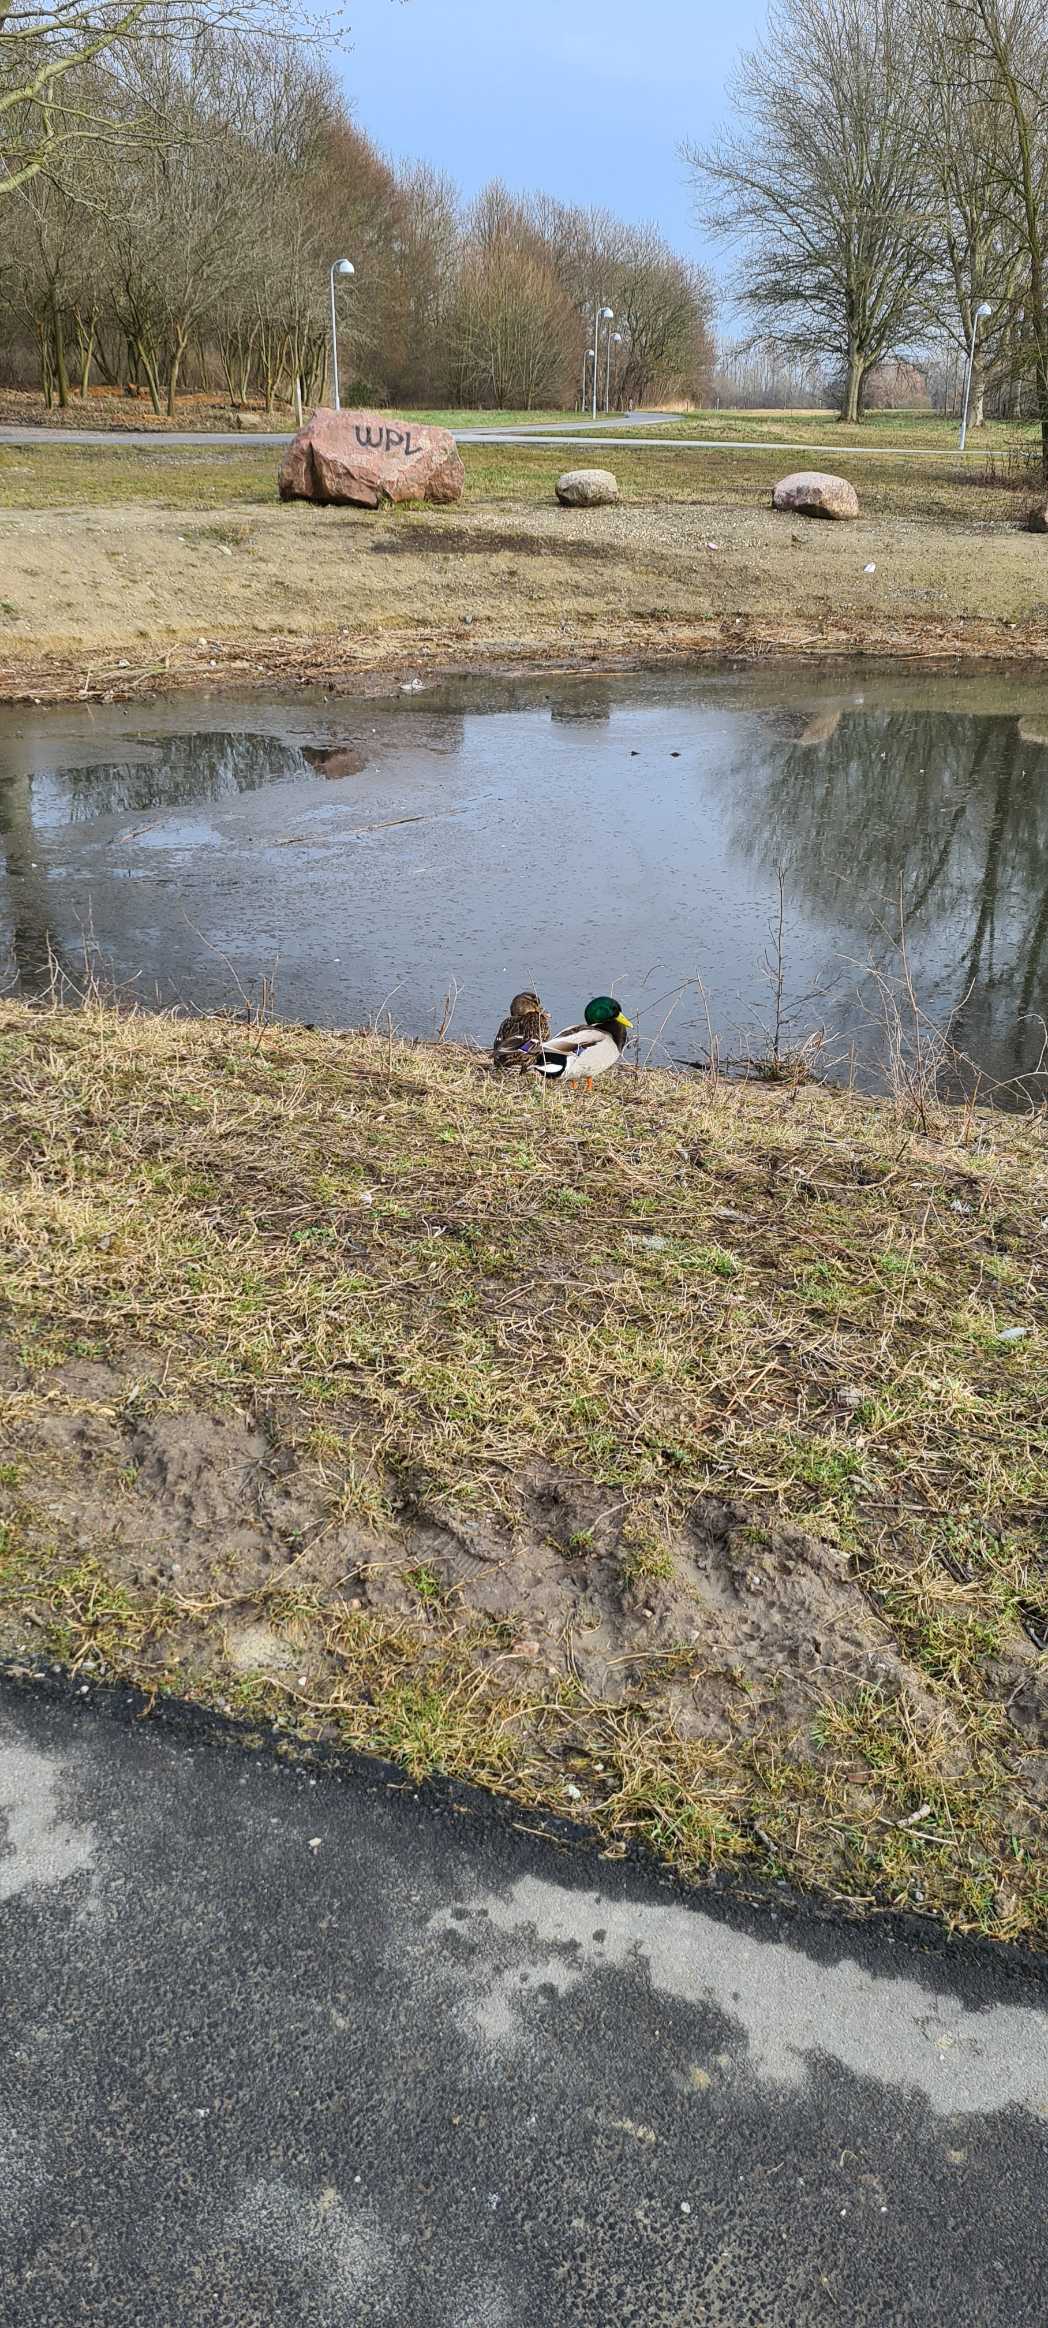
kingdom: Animalia
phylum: Chordata
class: Aves
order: Anseriformes
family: Anatidae
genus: Anas
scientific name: Anas platyrhynchos
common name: Gråand
